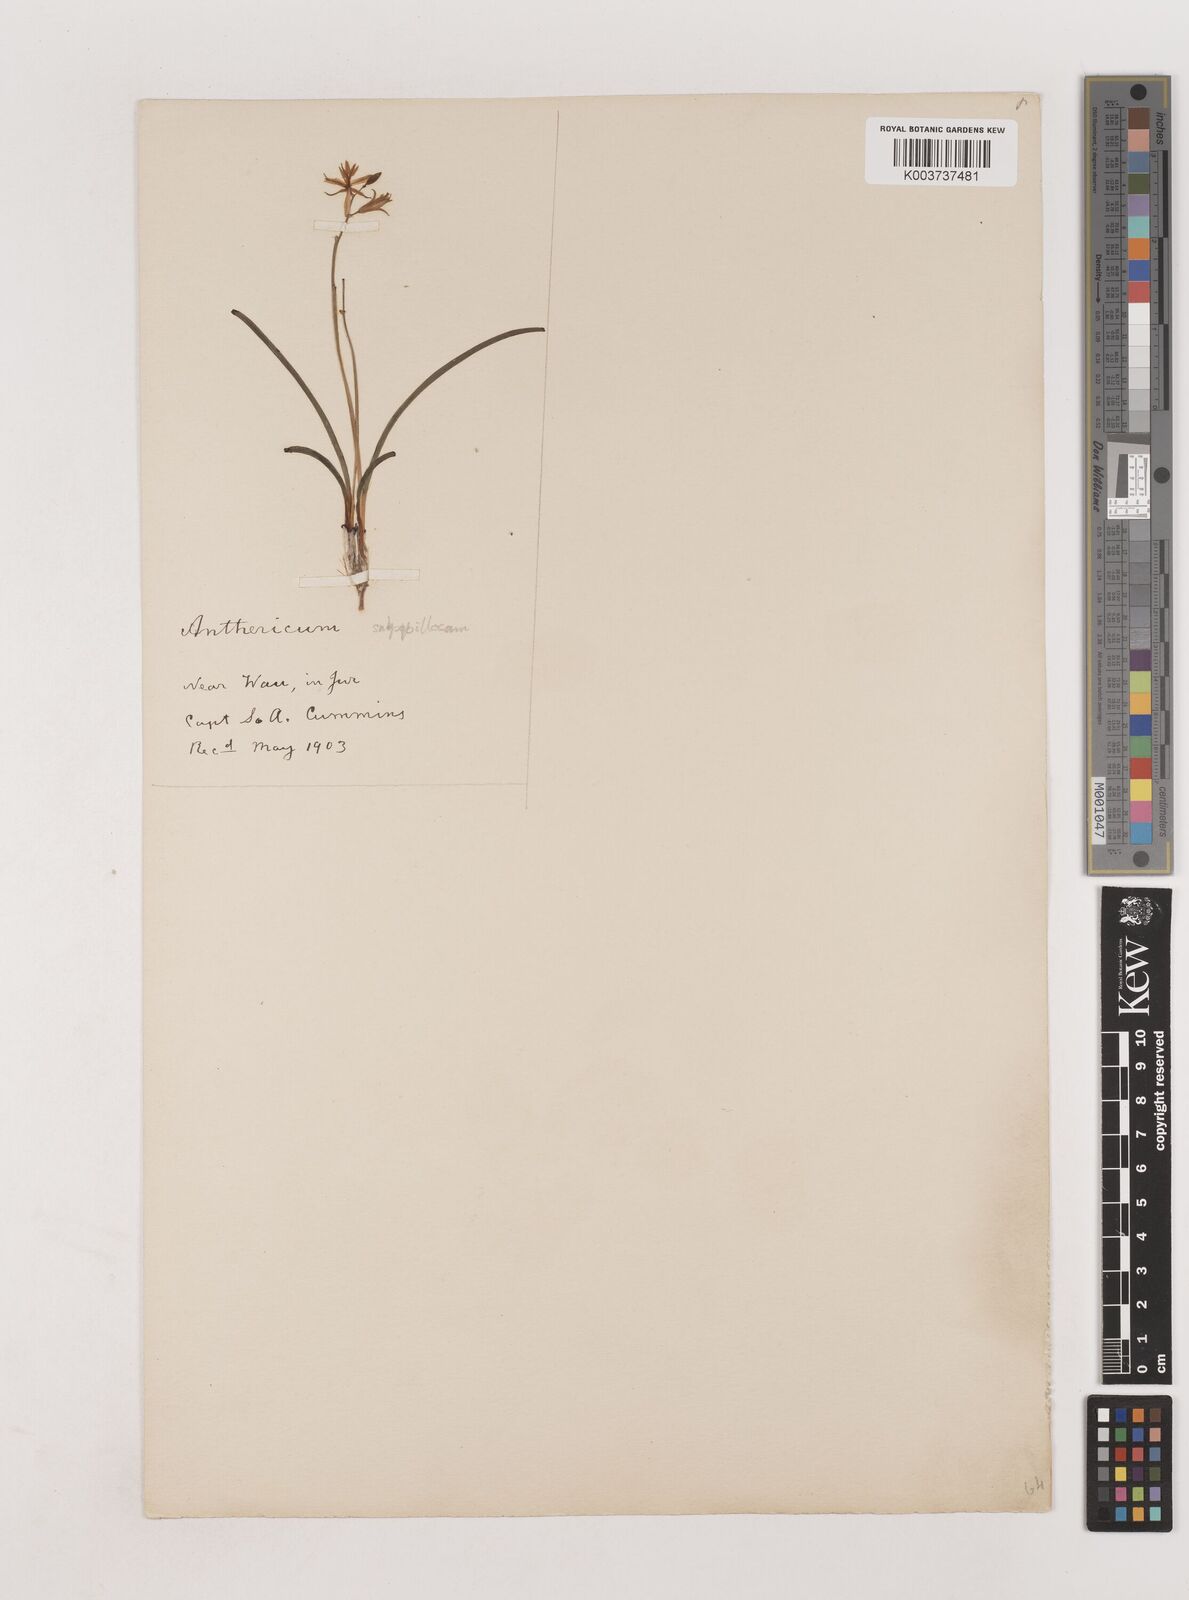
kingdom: Plantae
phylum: Tracheophyta
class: Liliopsida
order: Asparagales
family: Asparagaceae
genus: Chlorophytum
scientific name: Chlorophytum cameronii
